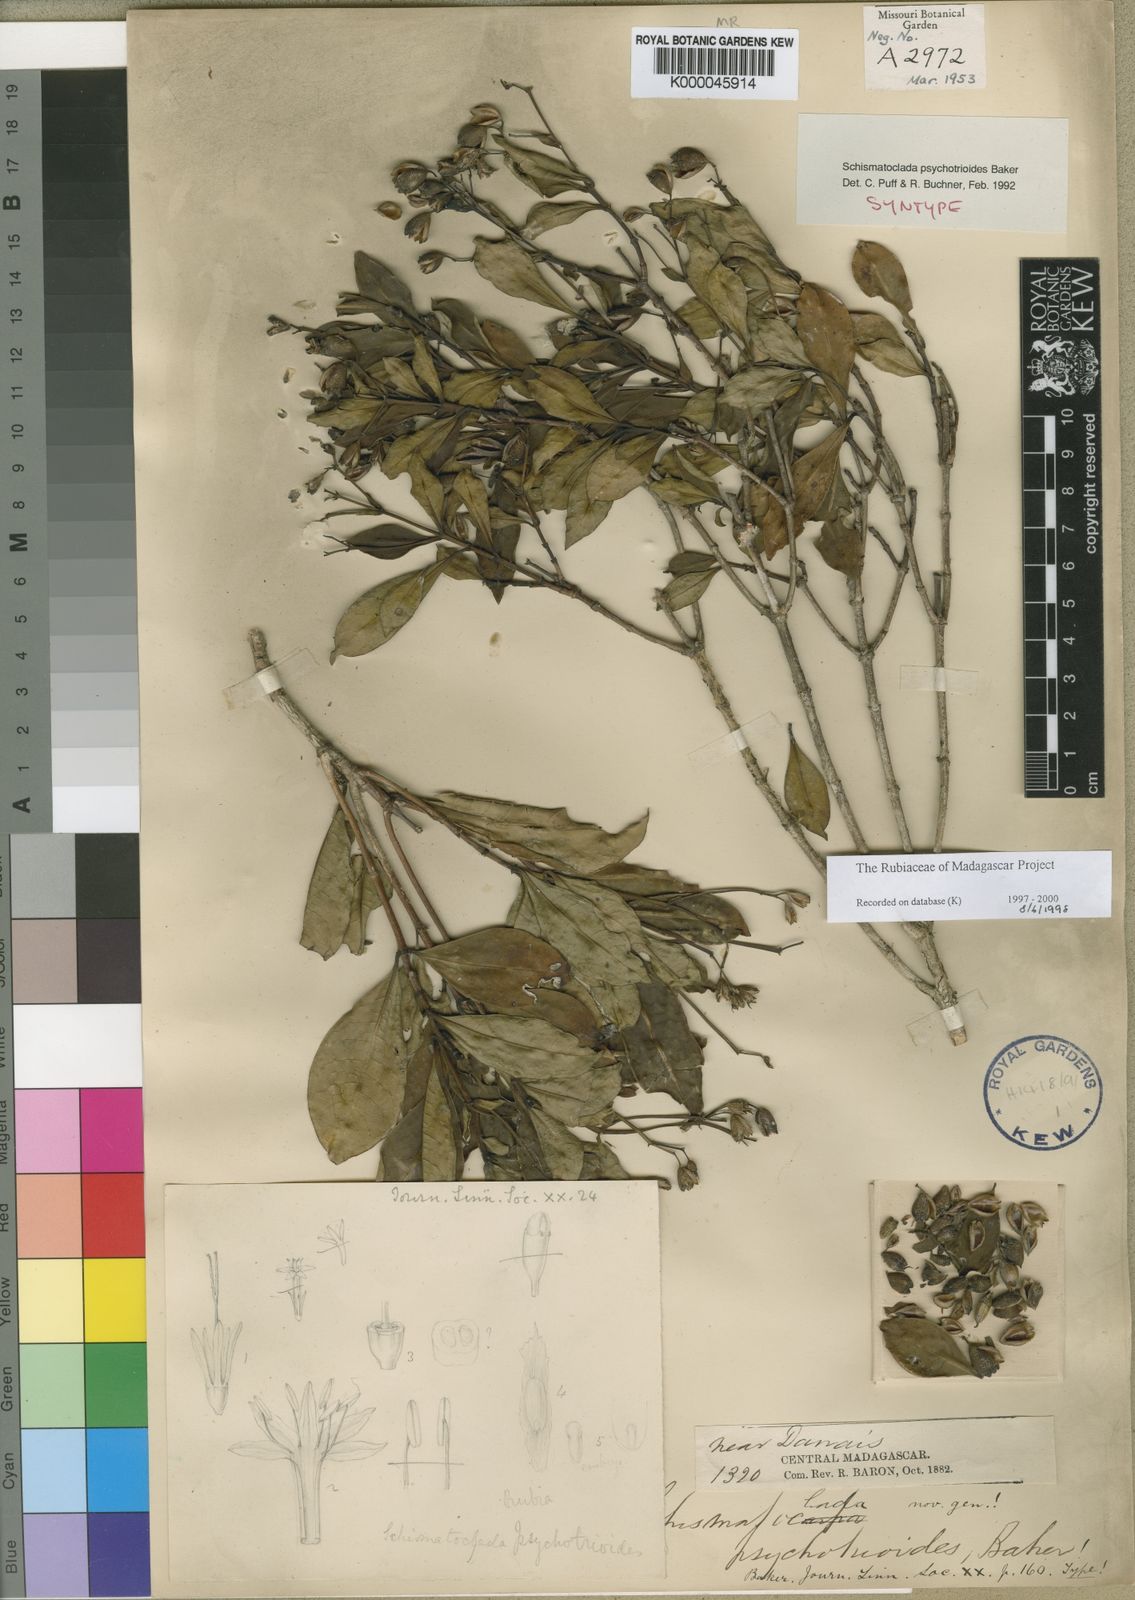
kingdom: Plantae
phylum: Tracheophyta
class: Magnoliopsida
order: Gentianales
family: Rubiaceae
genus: Schismatoclada
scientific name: Schismatoclada viburnoides
